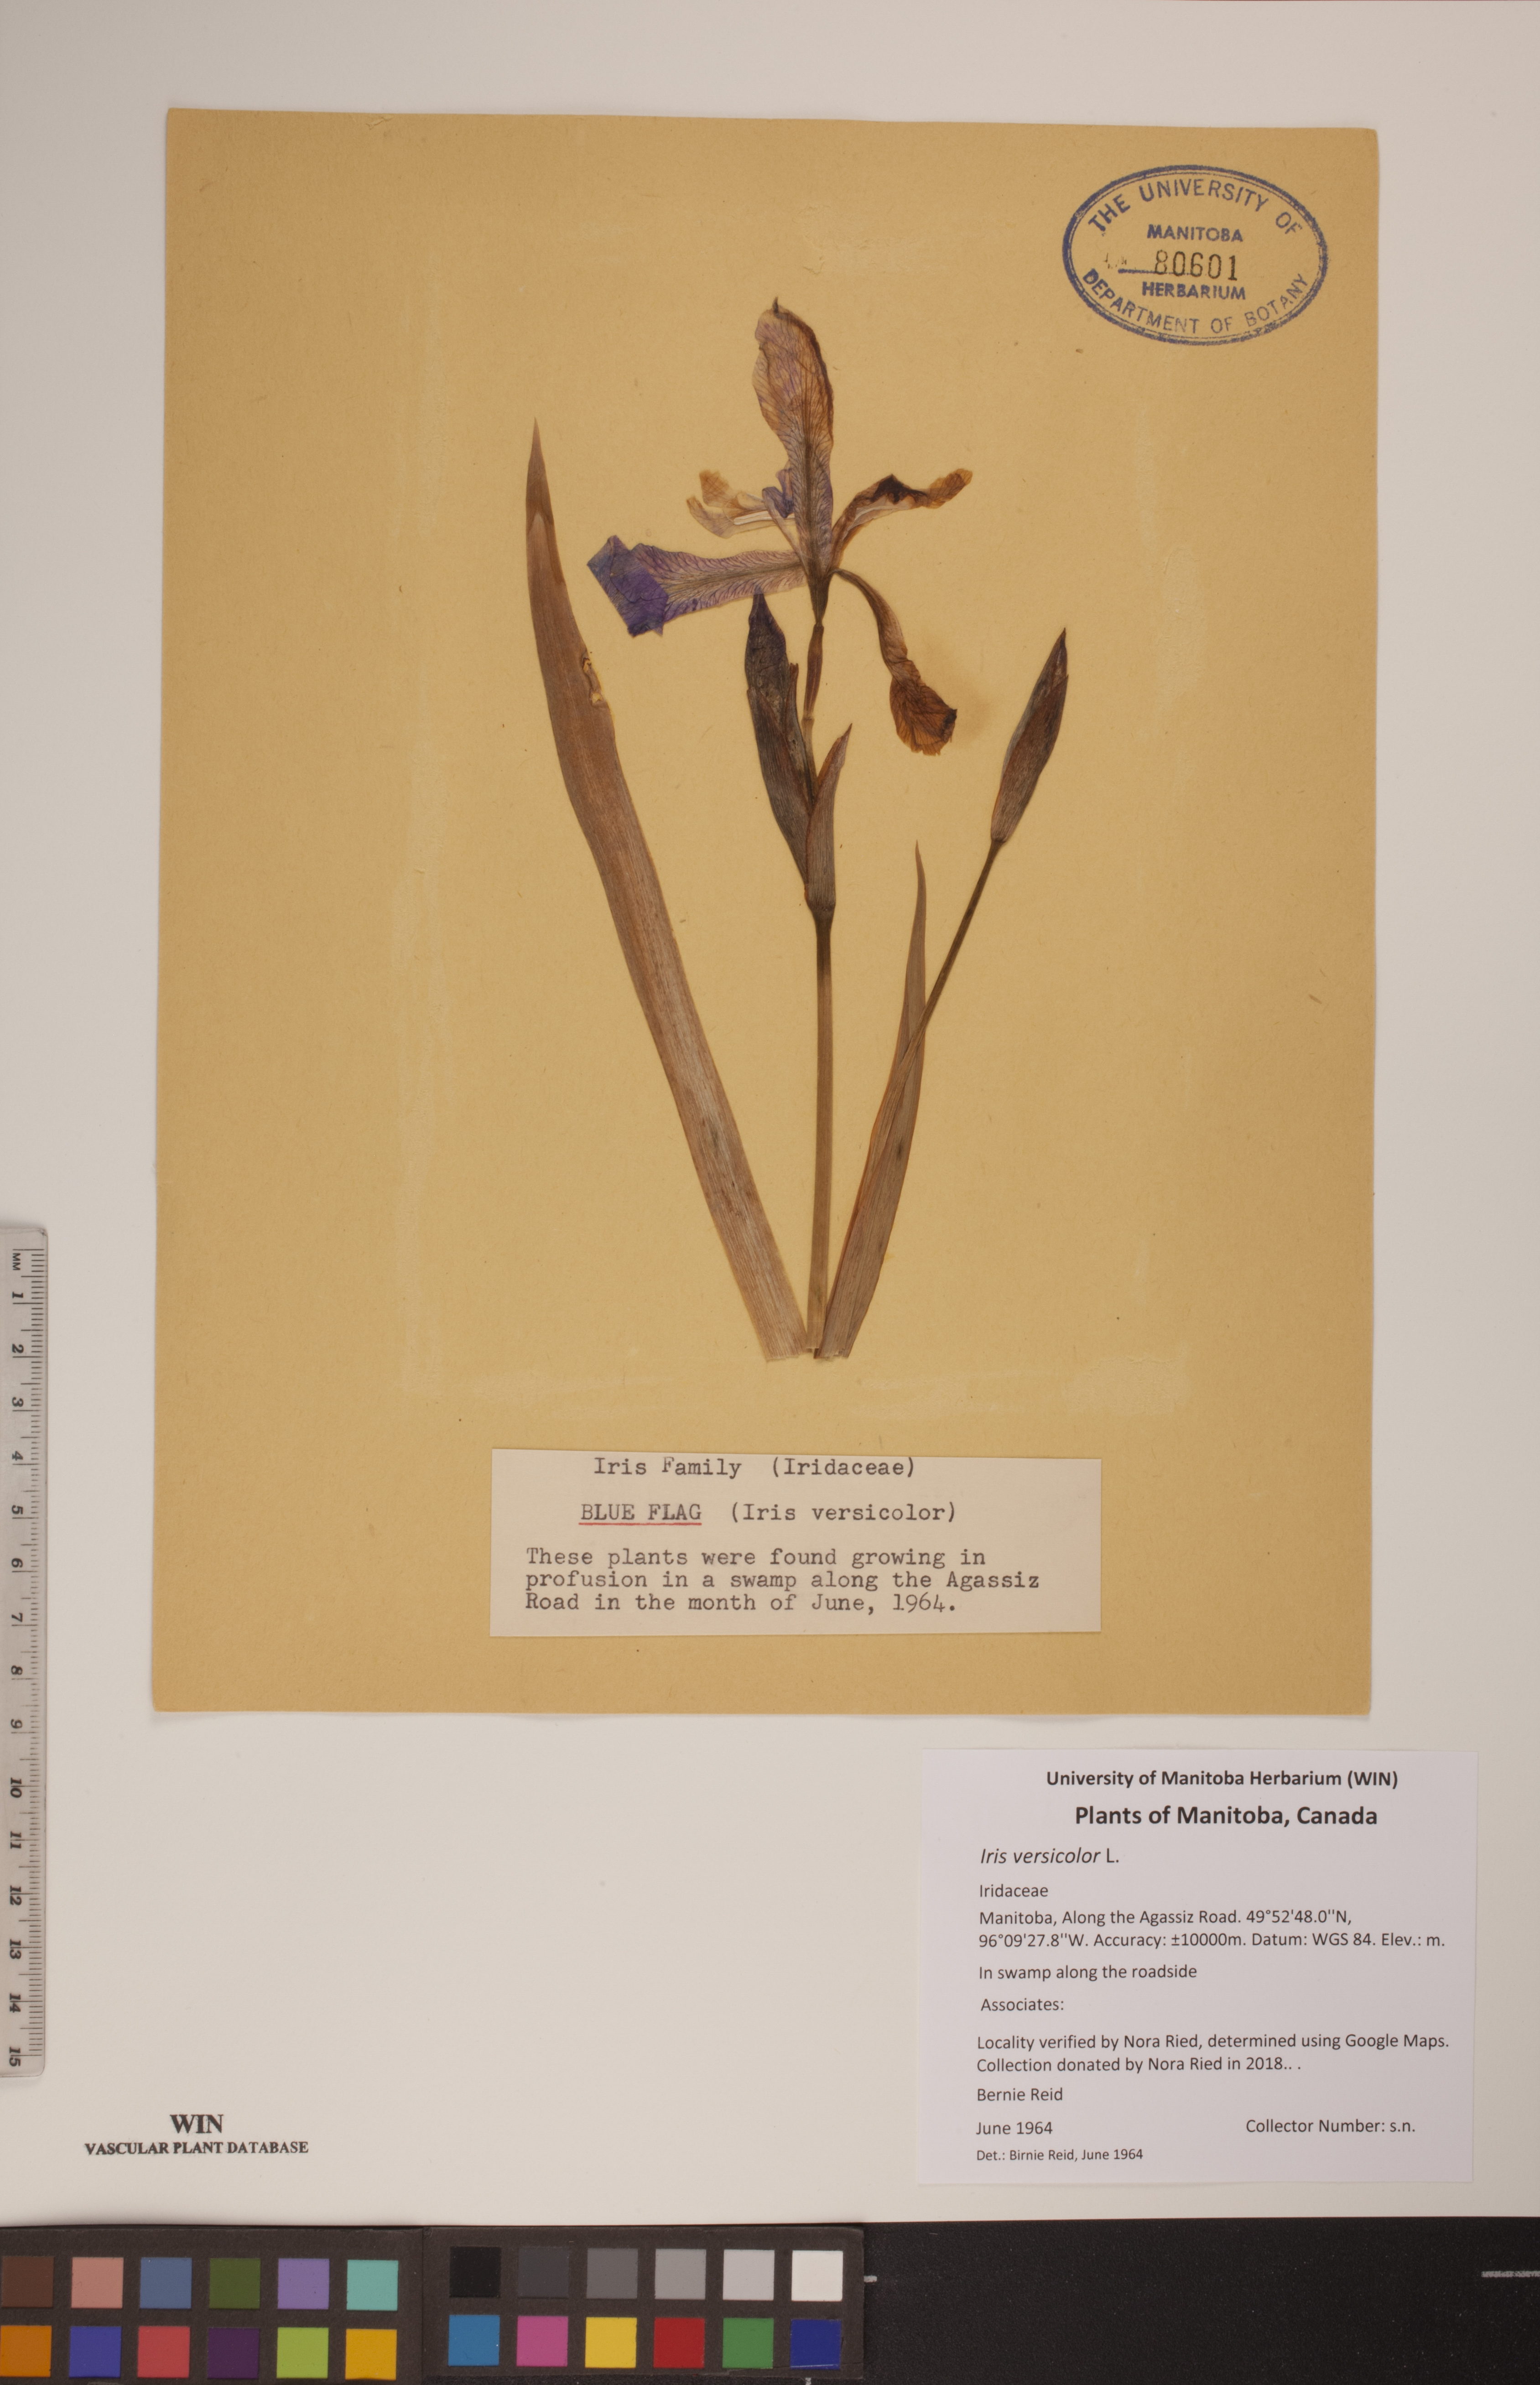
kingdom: Plantae
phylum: Tracheophyta
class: Liliopsida
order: Asparagales
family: Iridaceae
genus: Iris
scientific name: Iris versicolor
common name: Purple iris
